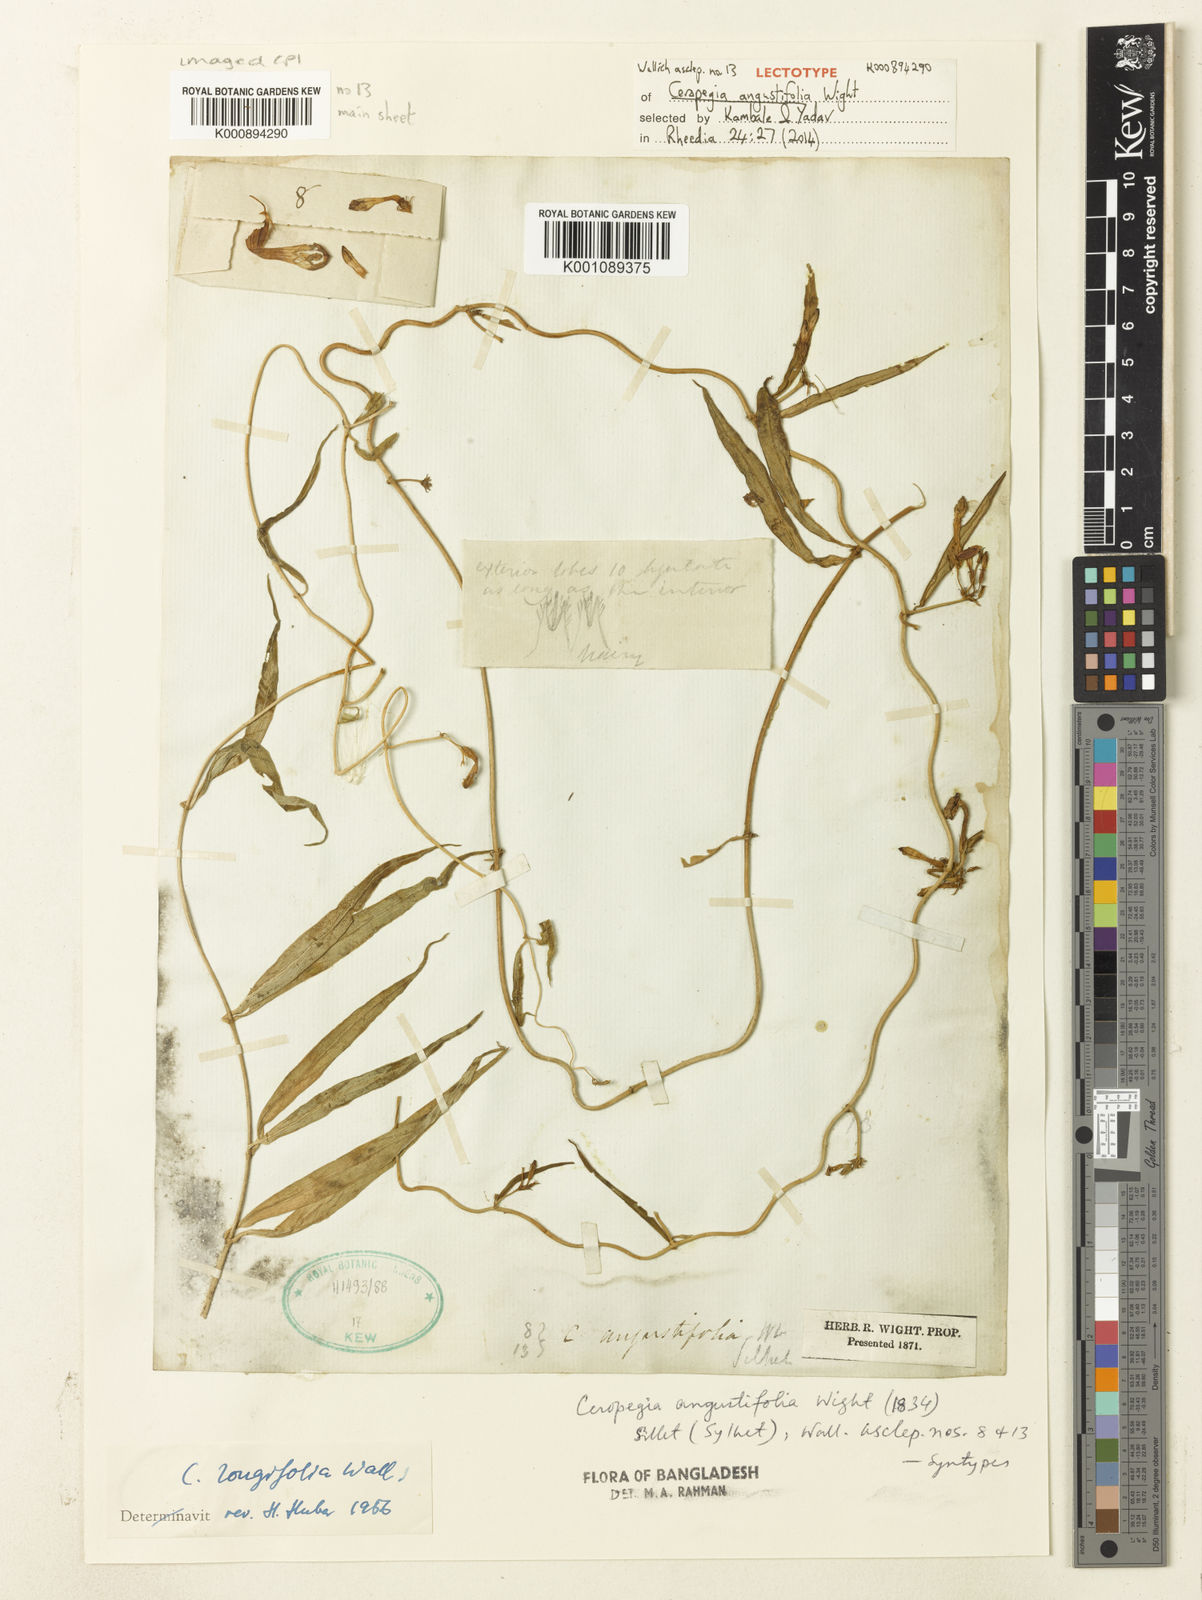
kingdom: Plantae
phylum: Tracheophyta
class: Magnoliopsida
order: Gentianales
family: Apocynaceae
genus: Ceropegia
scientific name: Ceropegia longifolia
